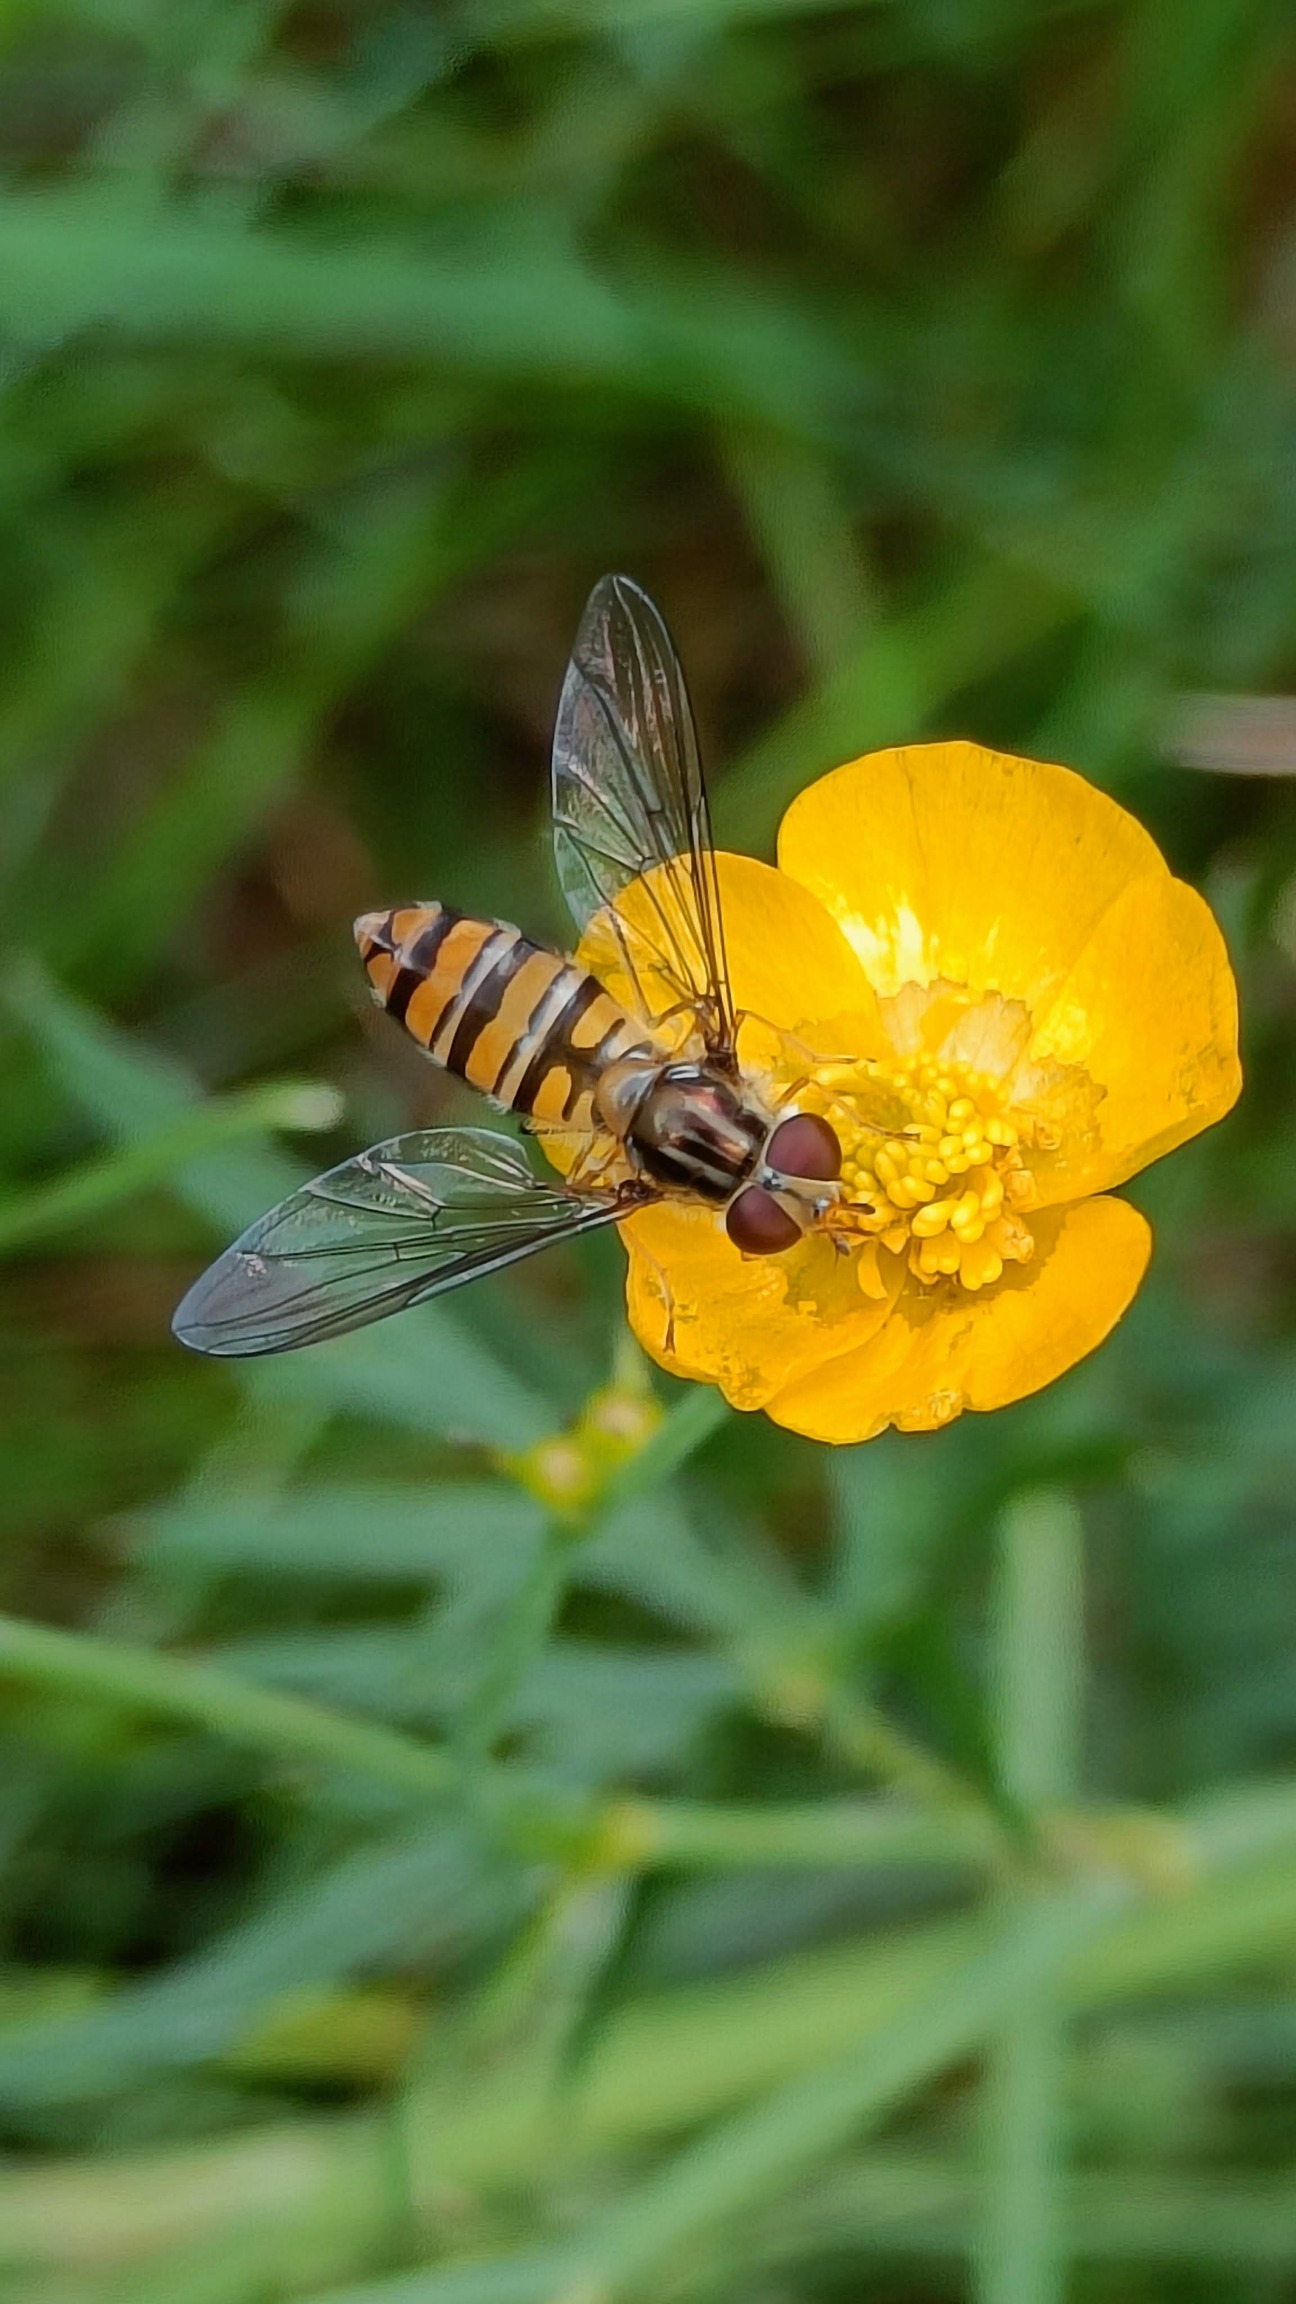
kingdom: Animalia
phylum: Arthropoda
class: Insecta
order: Diptera
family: Syrphidae
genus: Episyrphus
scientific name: Episyrphus balteatus
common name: Dobbeltbåndet svirreflue
